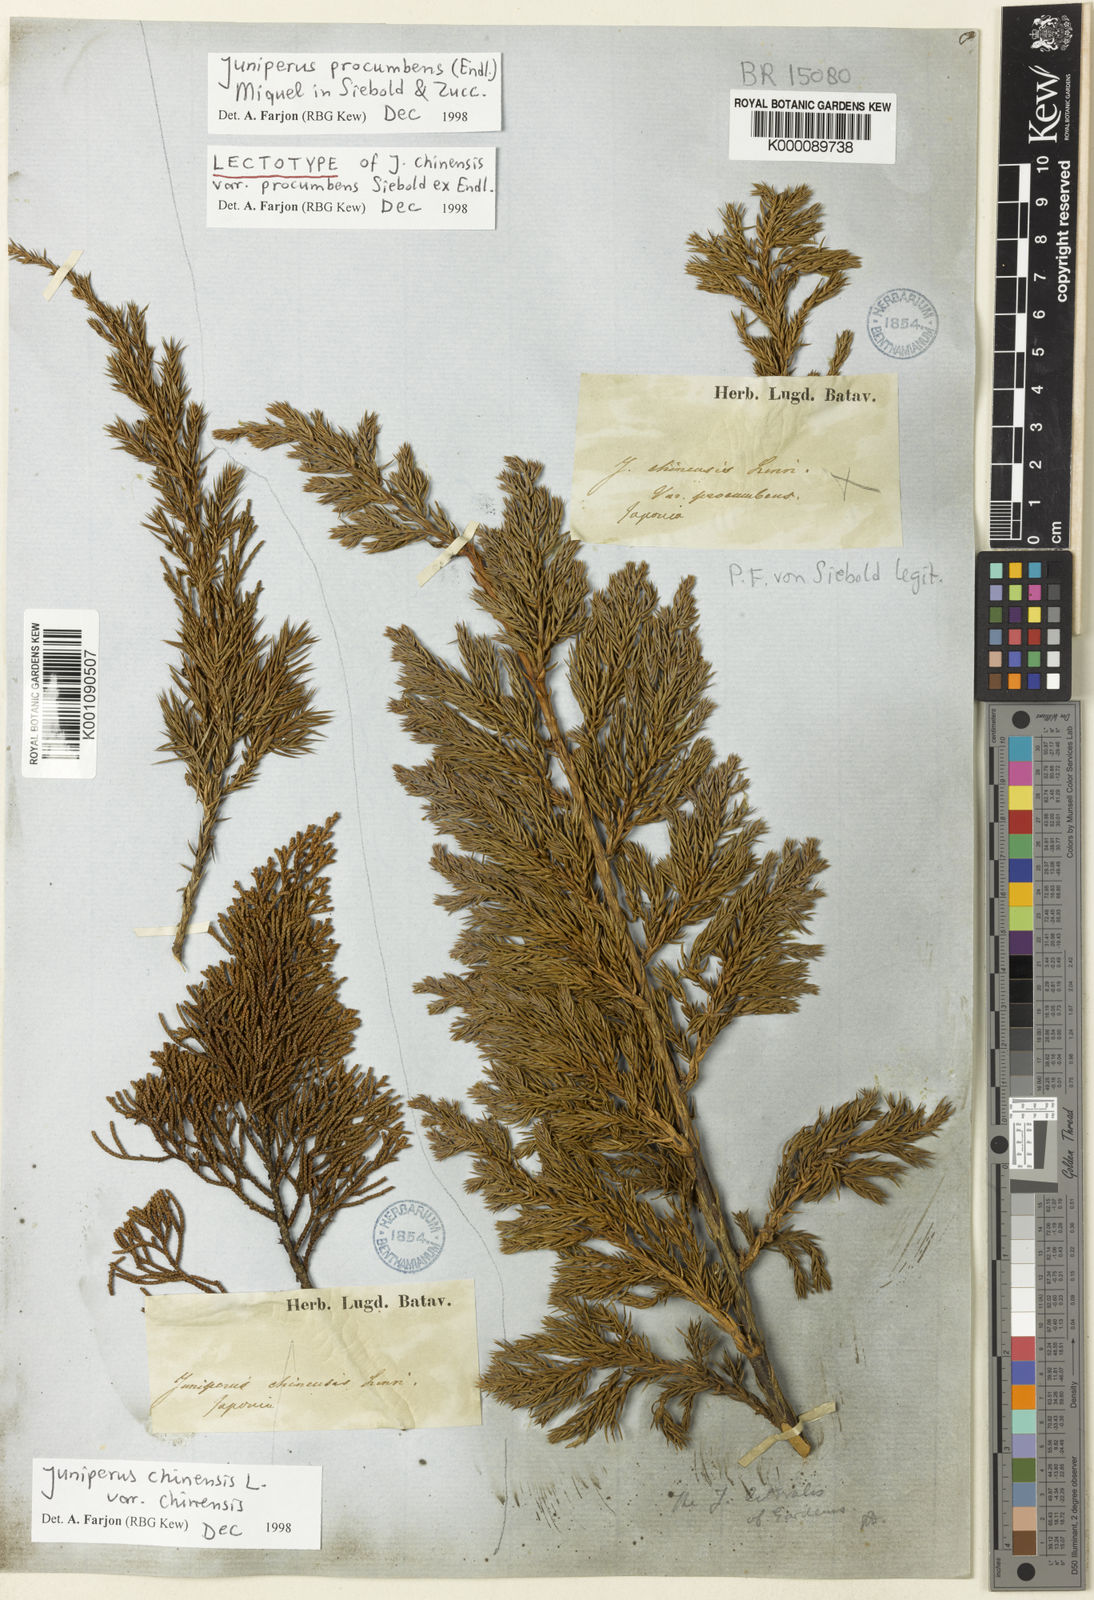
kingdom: Plantae
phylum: Tracheophyta
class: Pinopsida
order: Pinales
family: Cupressaceae
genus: Juniperus
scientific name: Juniperus procumbens
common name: Creeping juniper
